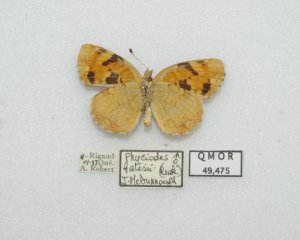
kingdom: Animalia
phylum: Arthropoda
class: Insecta
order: Lepidoptera
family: Nymphalidae
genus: Phyciodes
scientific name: Phyciodes batesii
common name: Tawny Crescent
